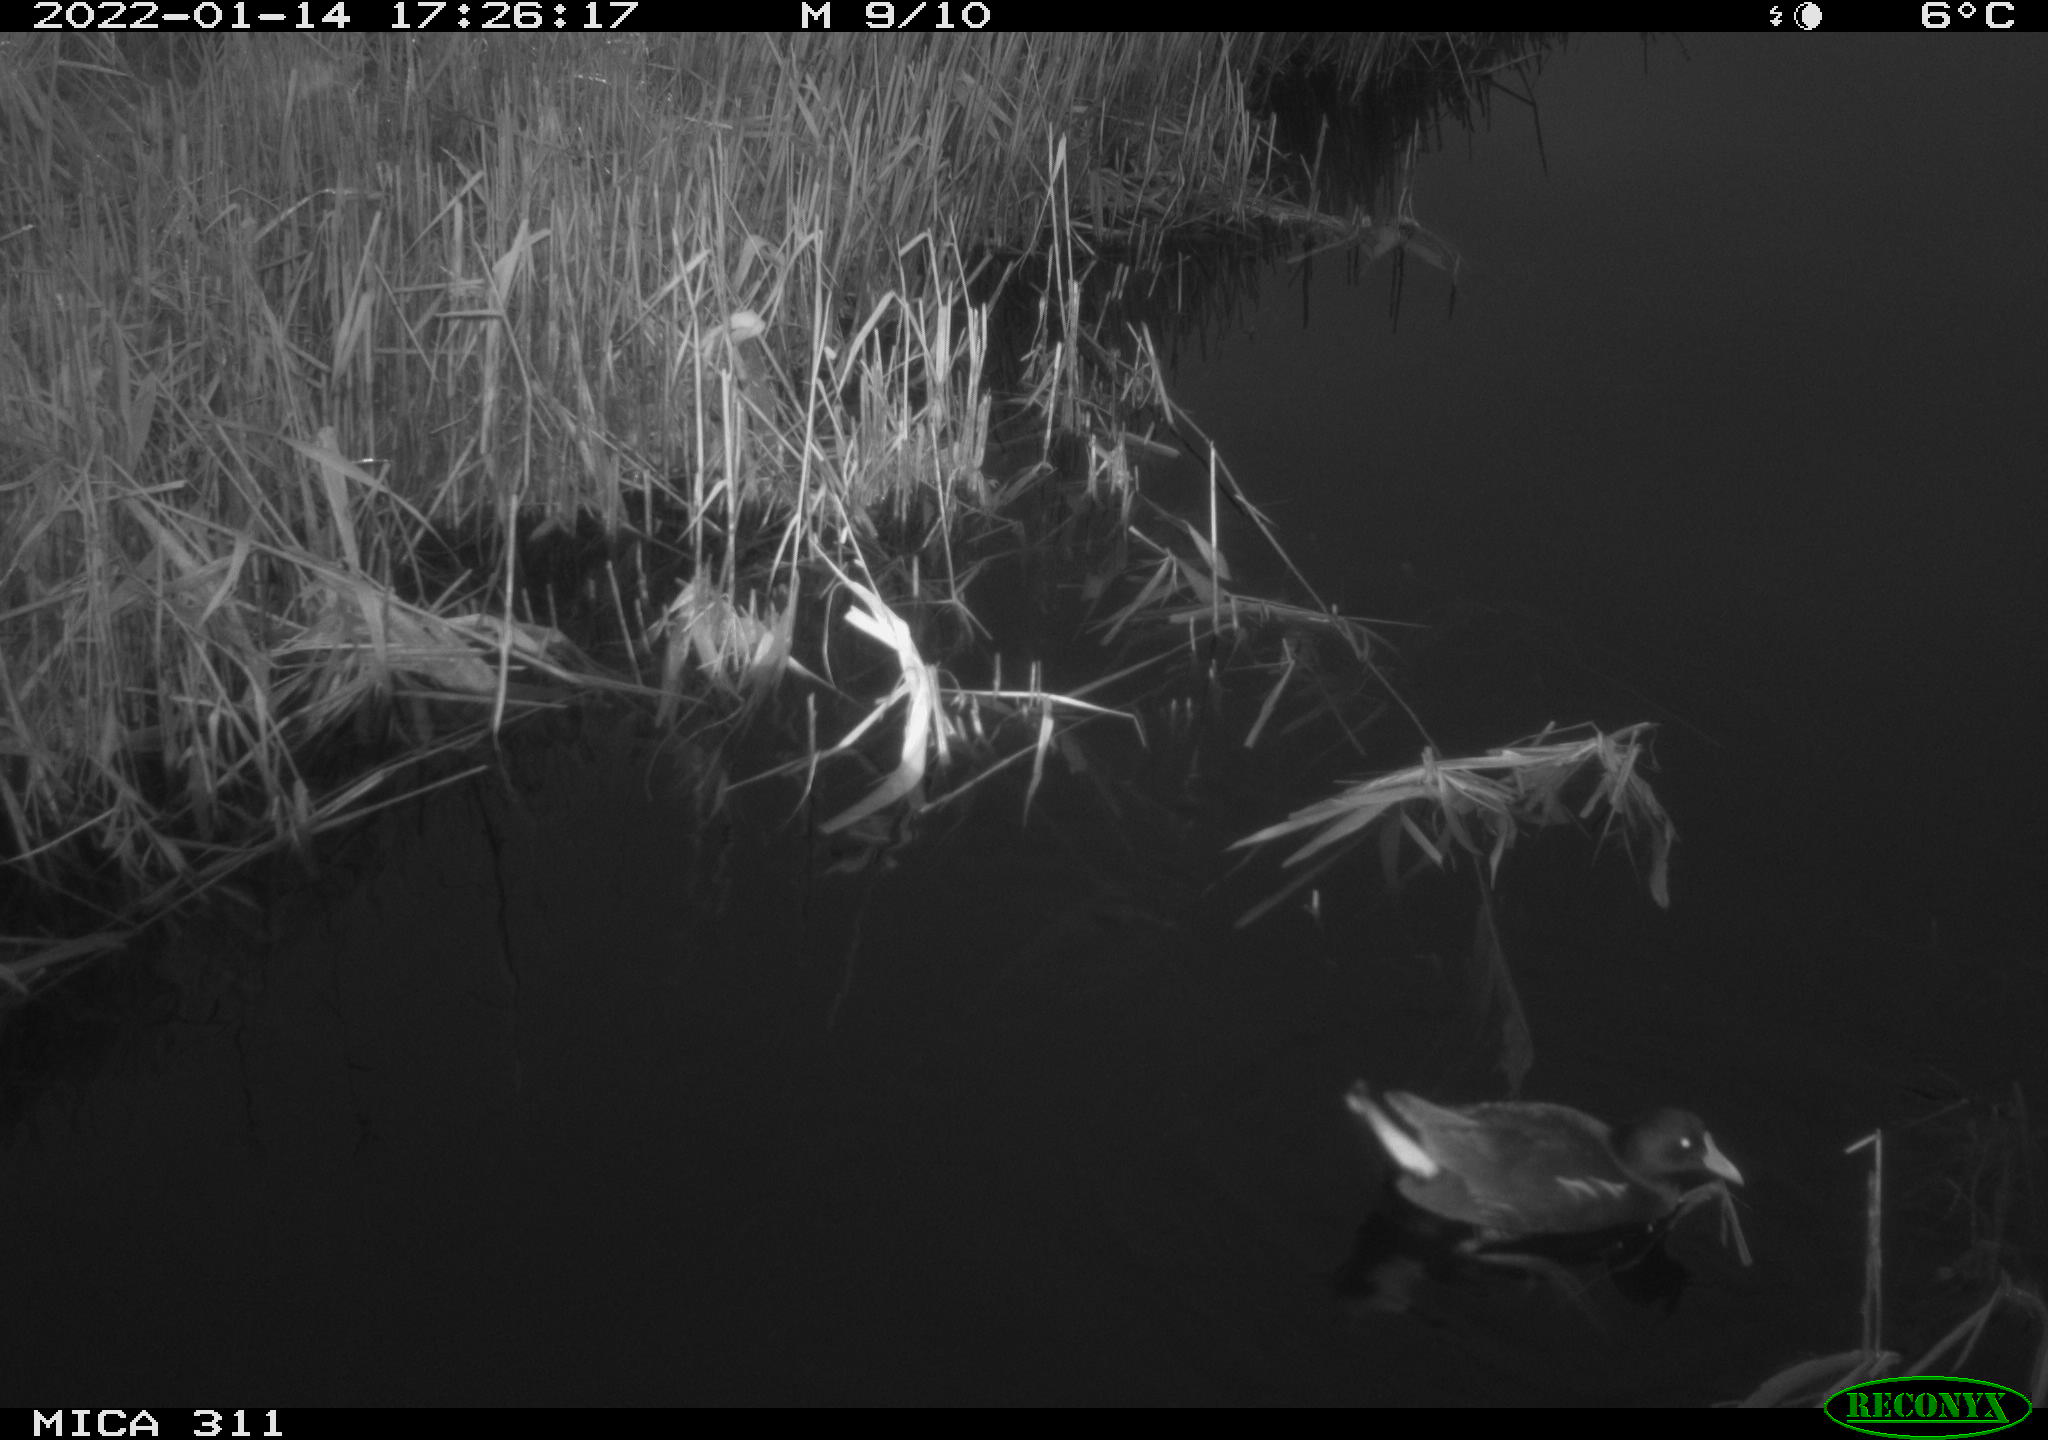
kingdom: Animalia
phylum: Chordata
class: Aves
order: Gruiformes
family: Rallidae
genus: Gallinula
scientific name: Gallinula chloropus
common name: Common moorhen
